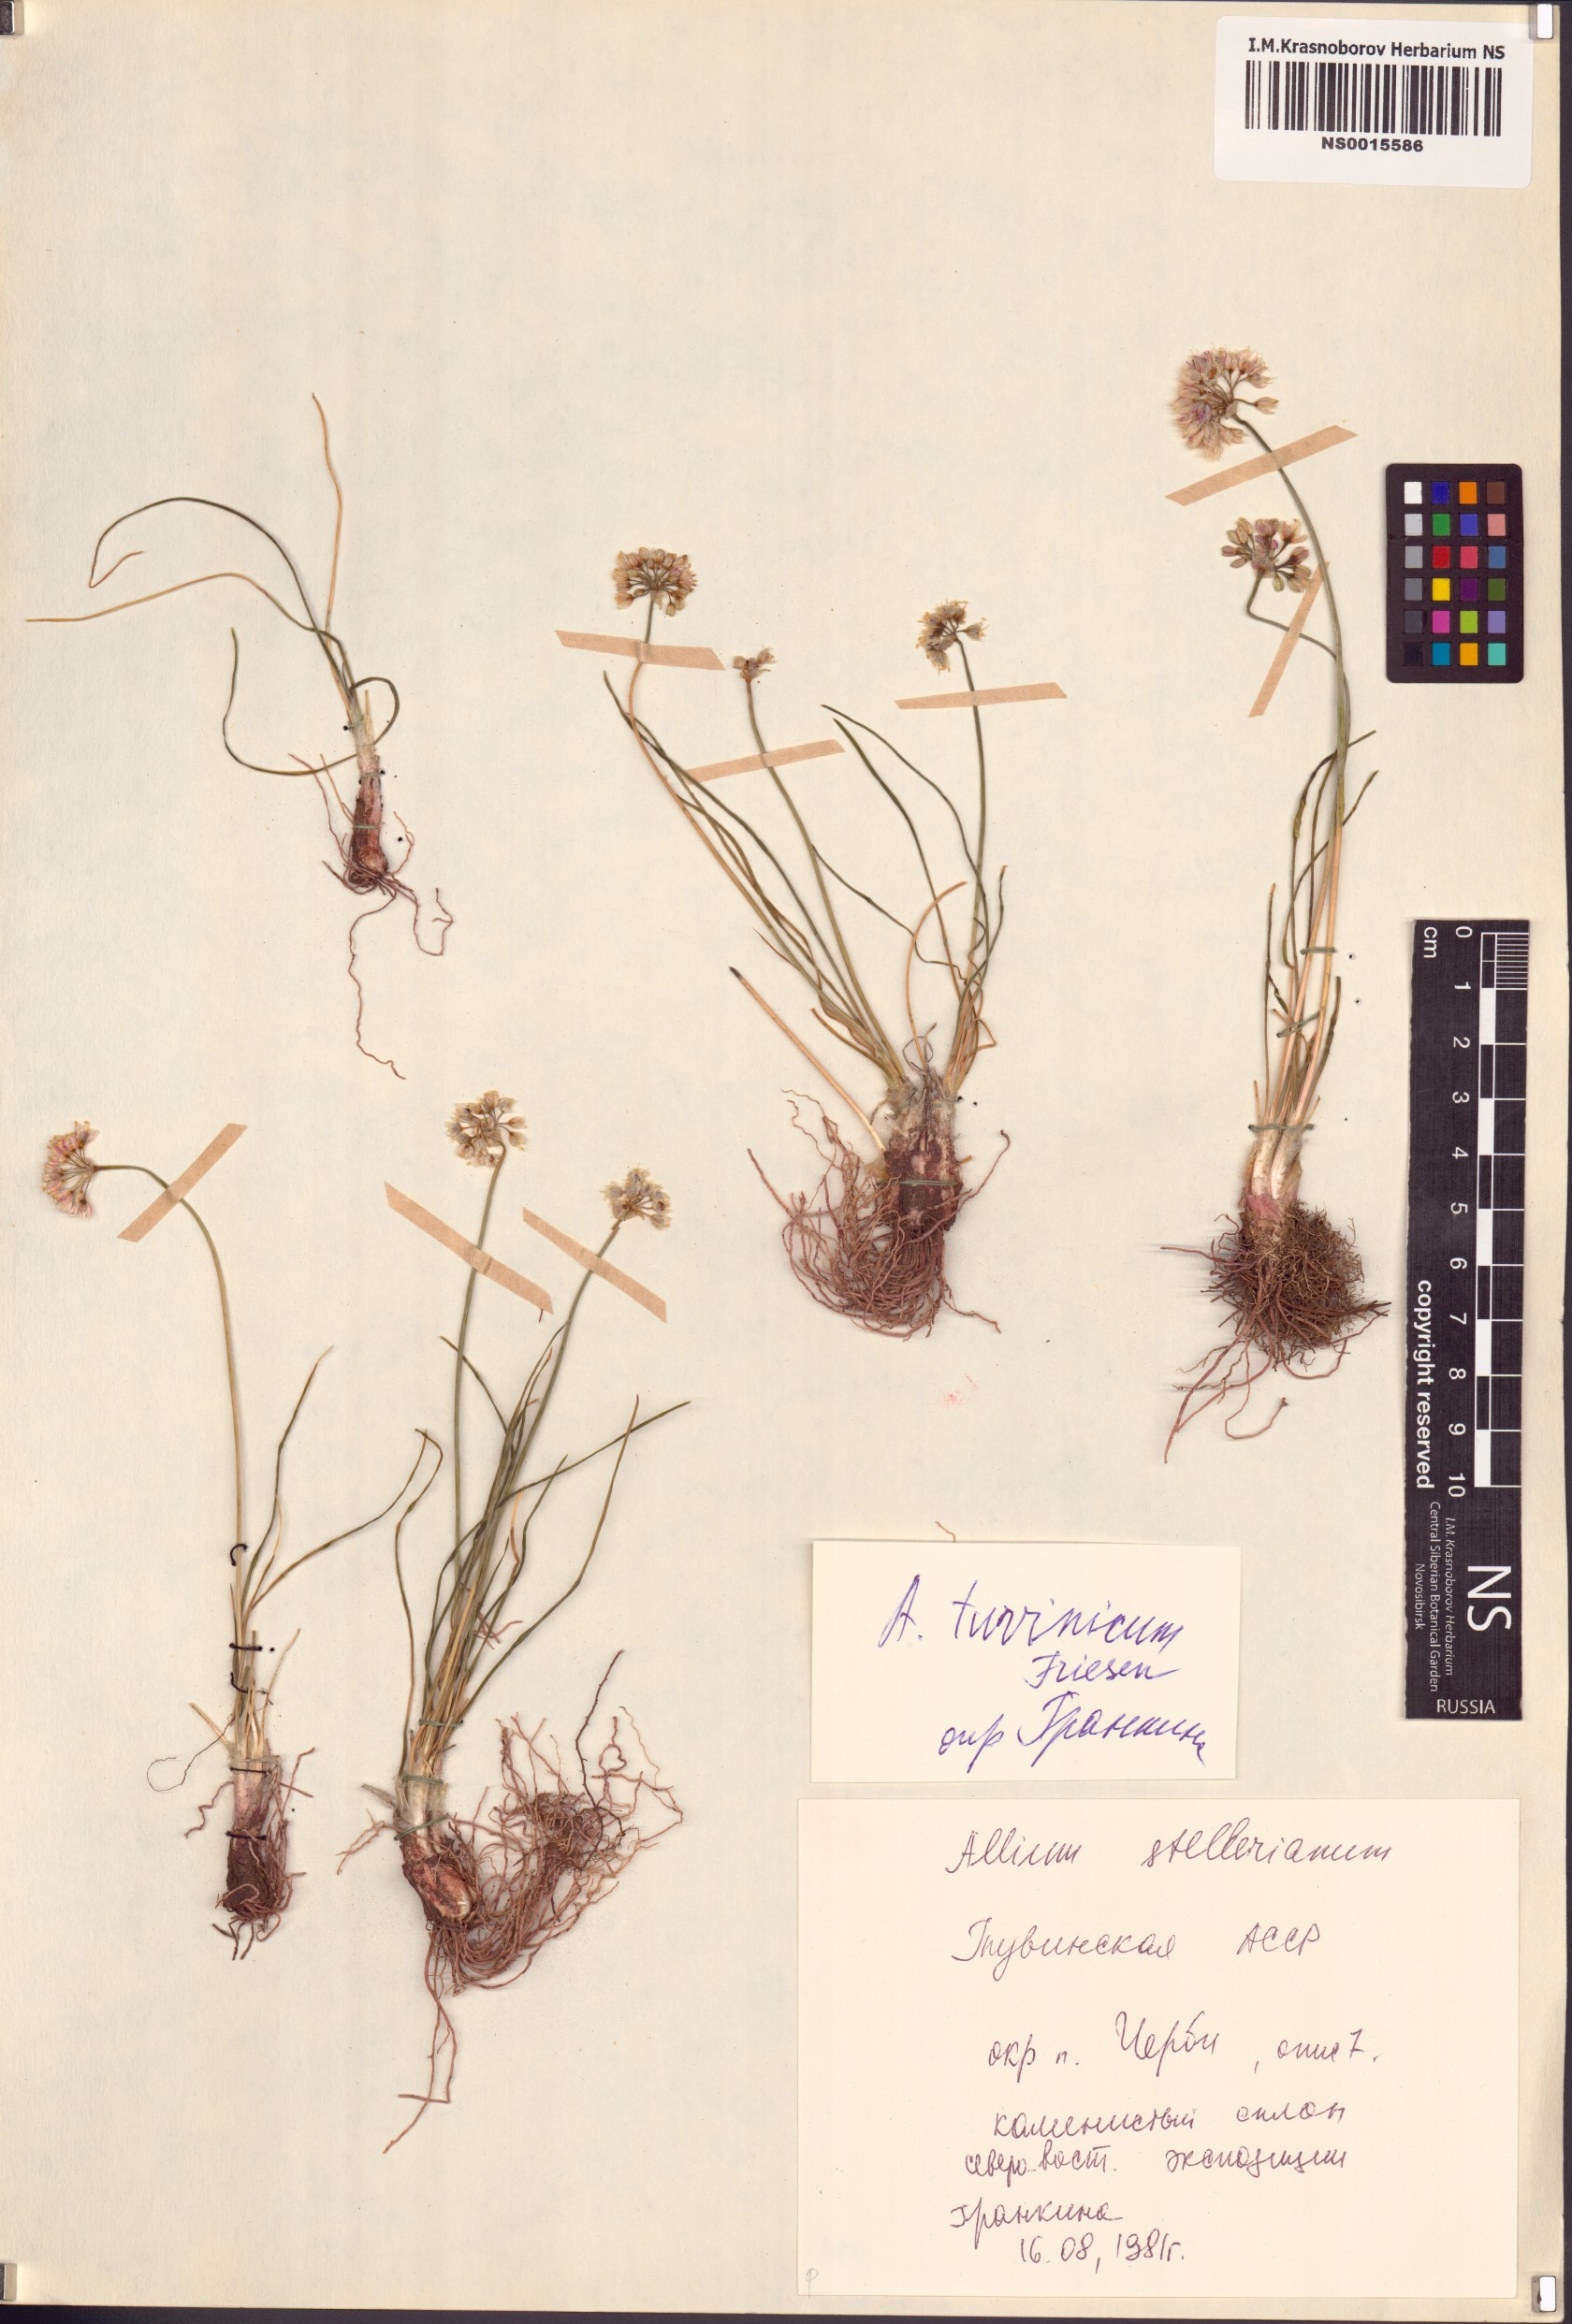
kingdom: Plantae
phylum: Tracheophyta
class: Liliopsida
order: Asparagales
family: Amaryllidaceae
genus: Allium
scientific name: Allium tuvinicum
